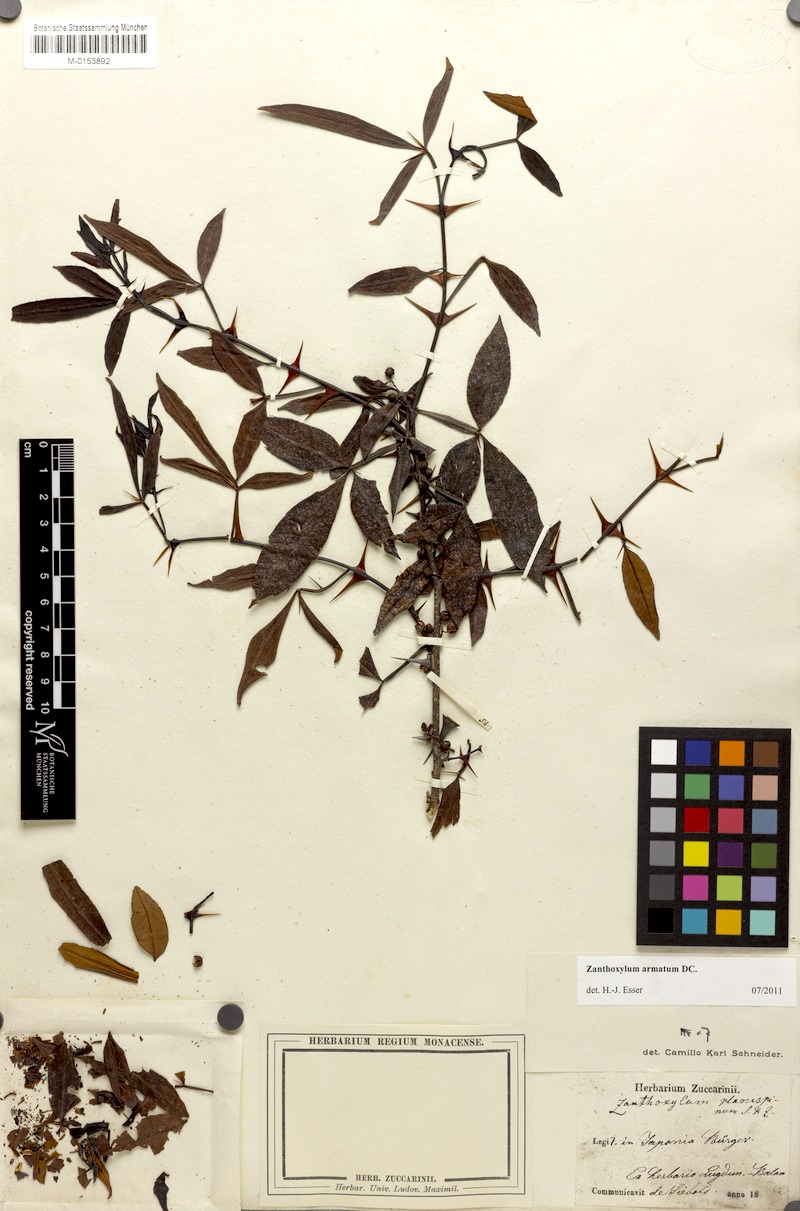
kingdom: Plantae
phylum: Tracheophyta
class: Magnoliopsida
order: Sapindales
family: Rutaceae
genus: Zanthoxylum
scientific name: Zanthoxylum armatum
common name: Winged prickly-ash
